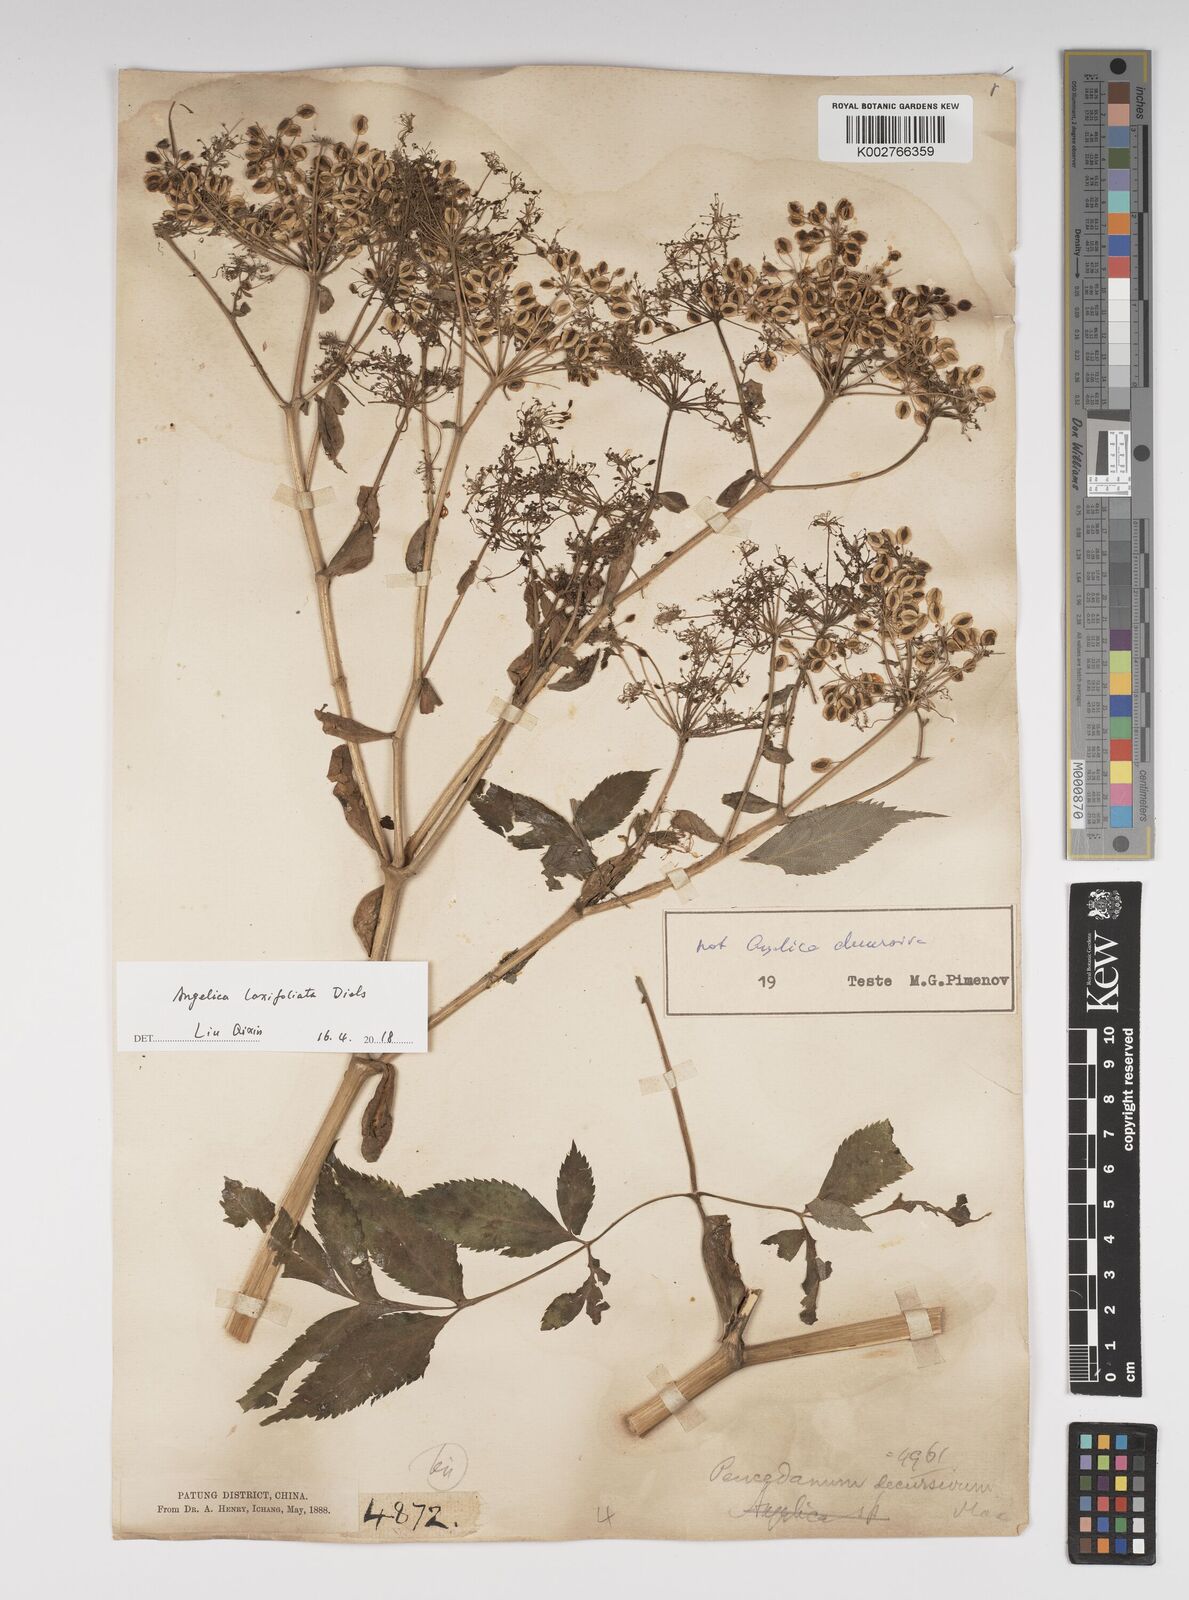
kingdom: Plantae
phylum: Tracheophyta
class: Magnoliopsida
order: Apiales
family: Apiaceae
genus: Angelica
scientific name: Angelica laxifoliata
